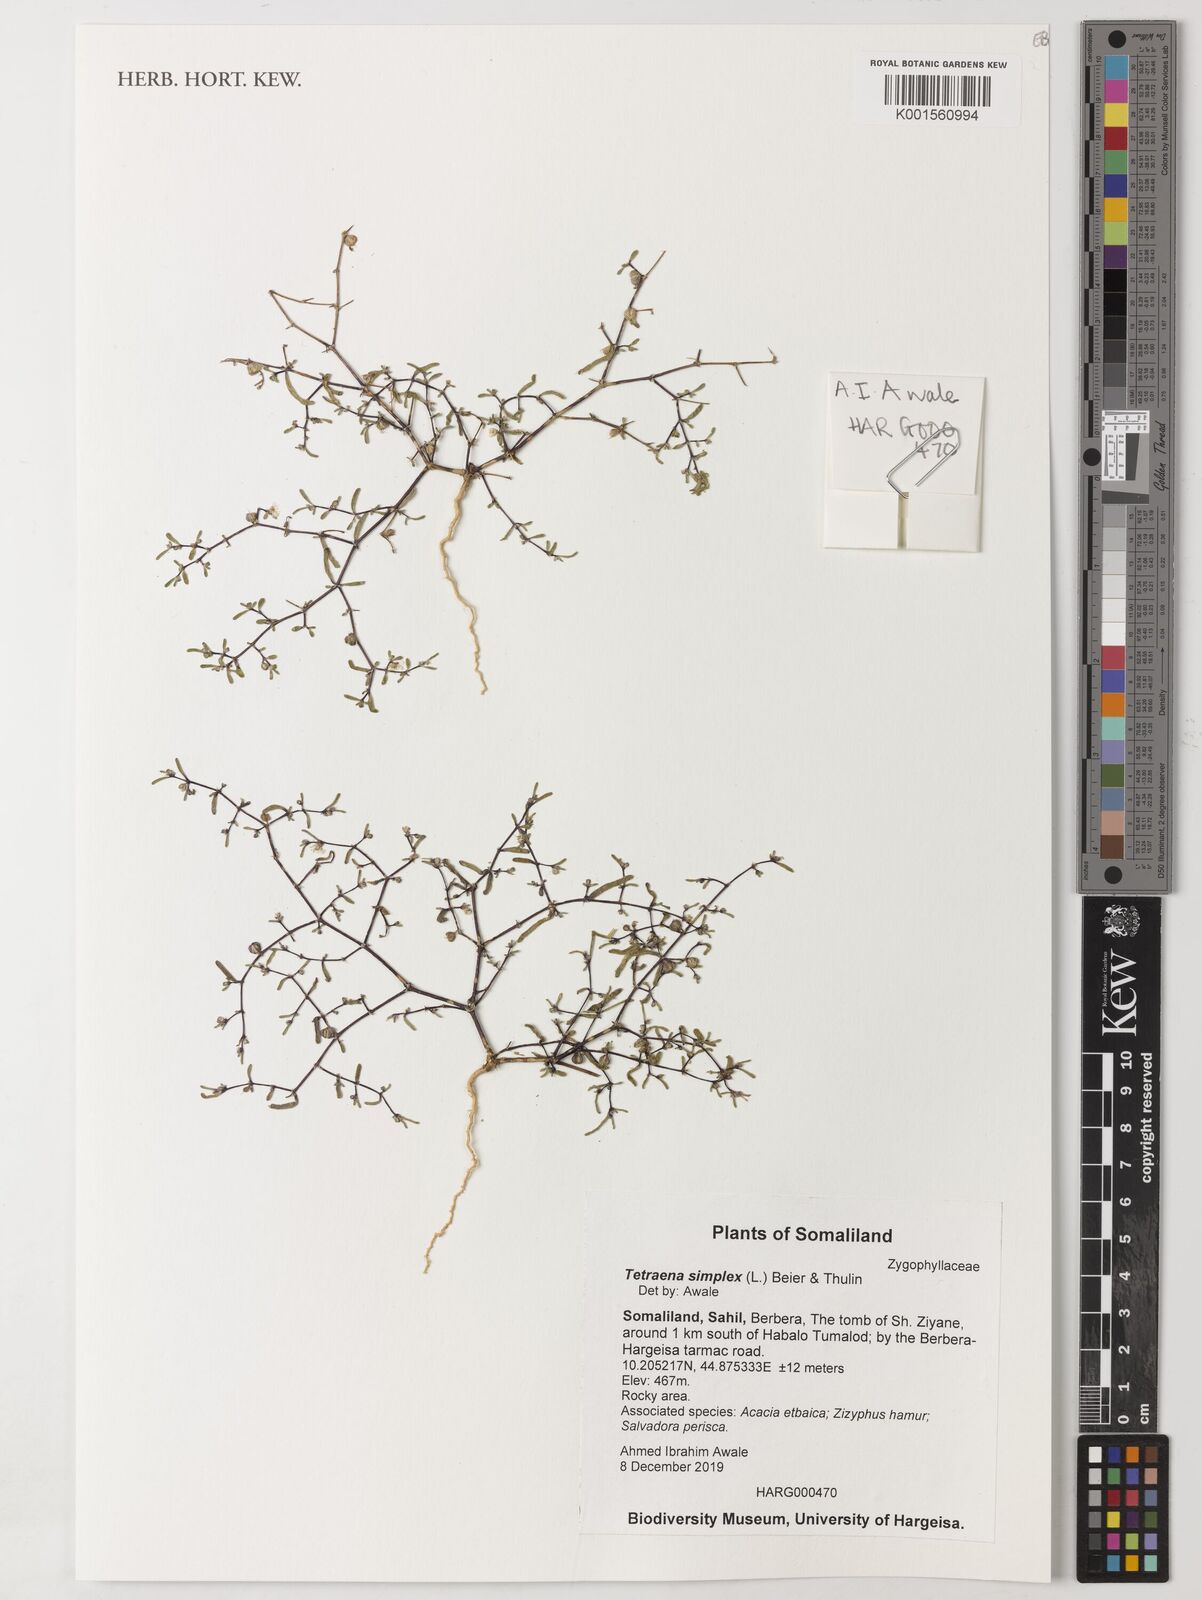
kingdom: Plantae
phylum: Tracheophyta
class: Magnoliopsida
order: Zygophyllales
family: Zygophyllaceae
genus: Tetraena
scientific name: Tetraena simplex
